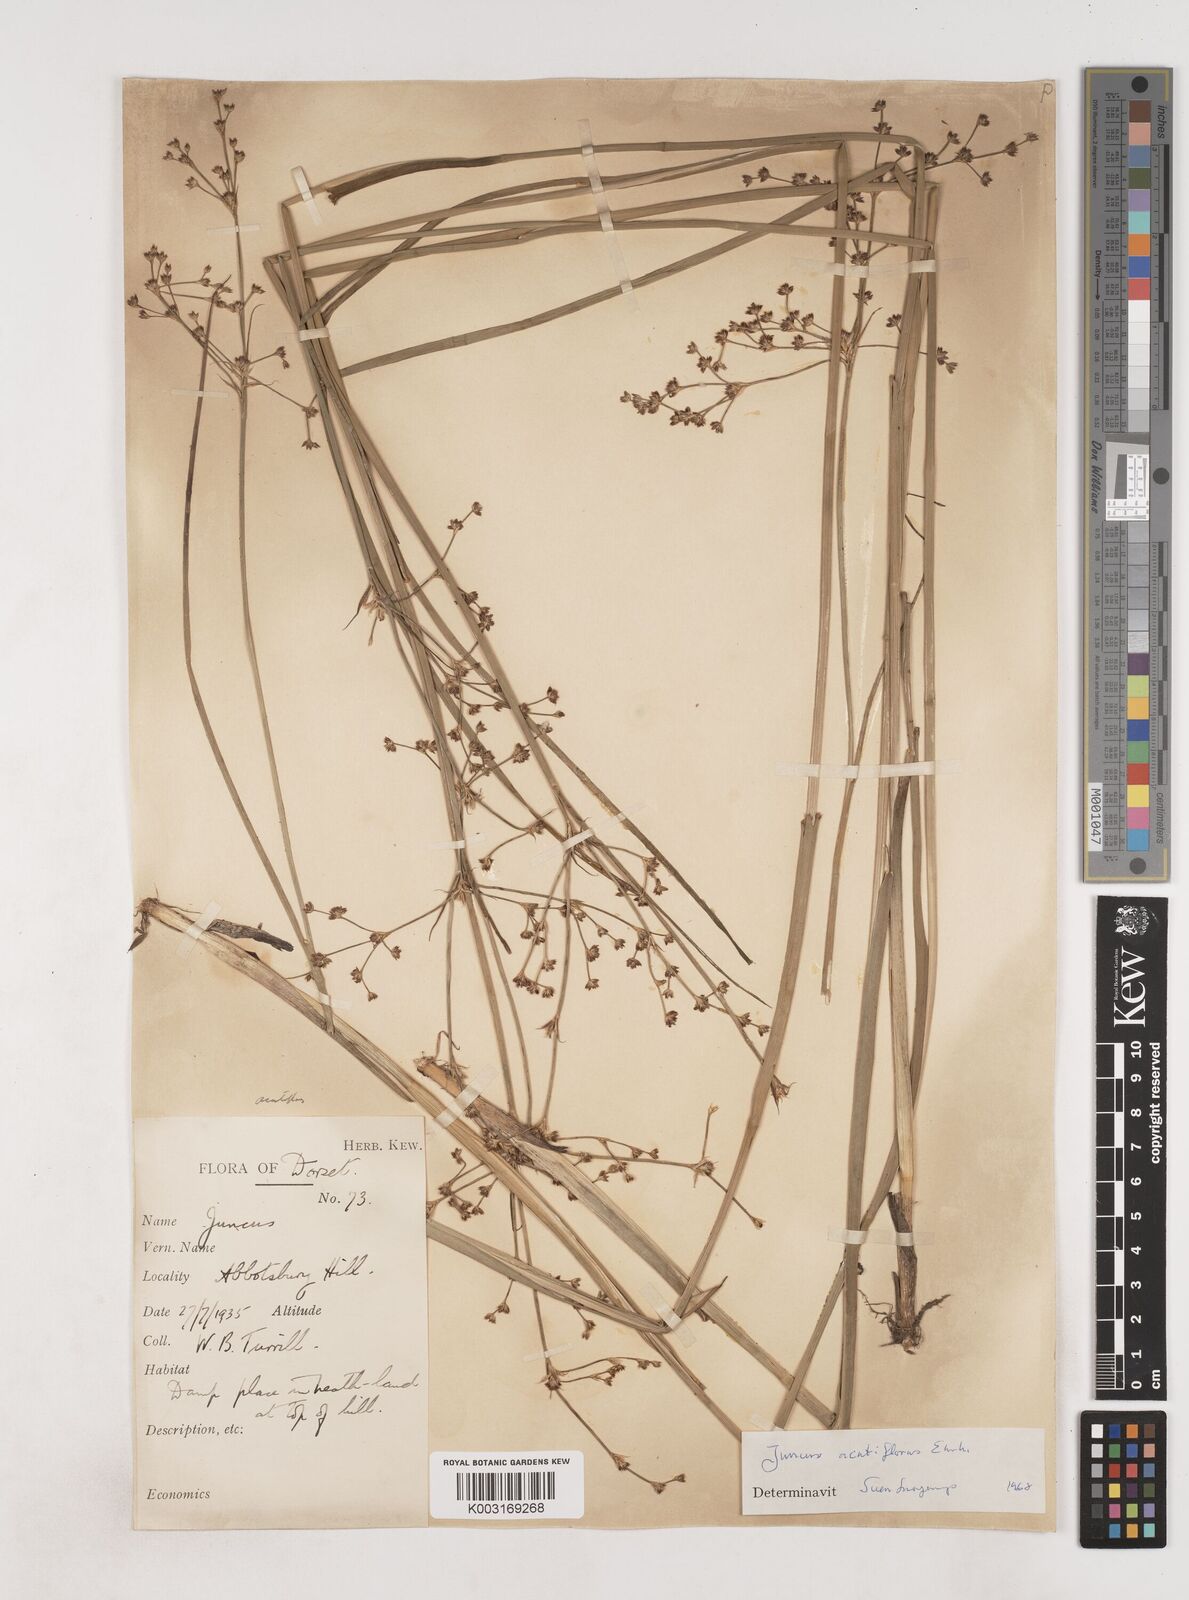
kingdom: Plantae
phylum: Tracheophyta
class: Liliopsida
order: Poales
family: Juncaceae
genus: Juncus
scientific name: Juncus acutiflorus
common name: Sharp-flowered rush
